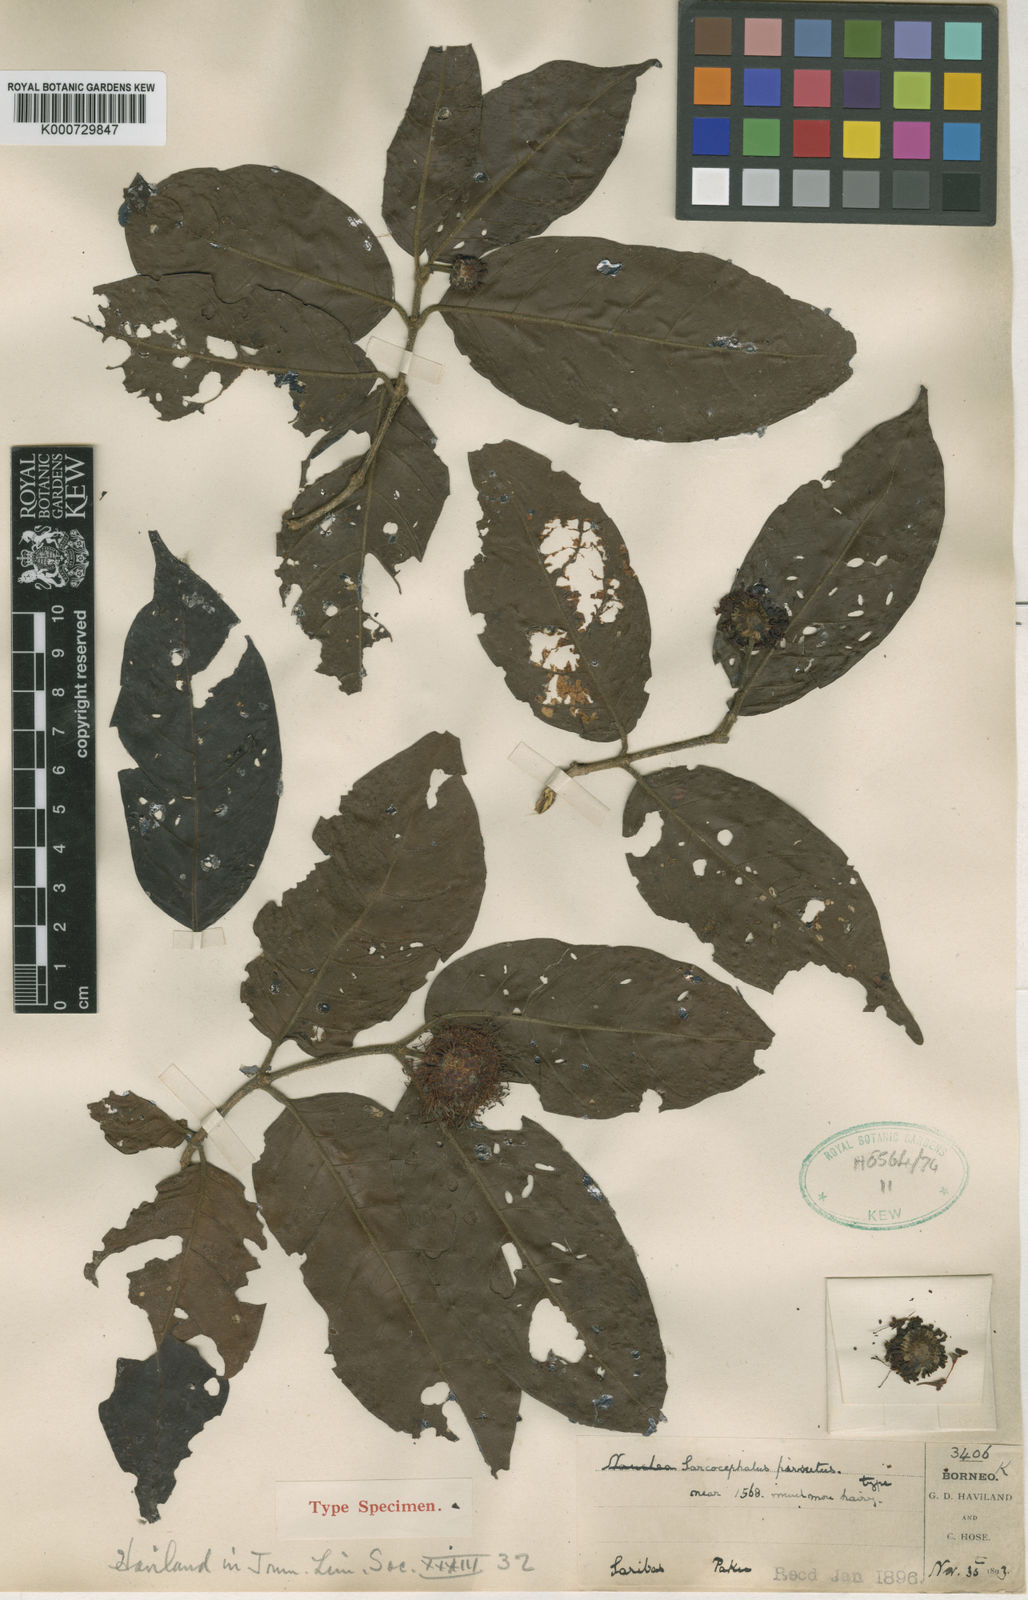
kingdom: Plantae
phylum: Tracheophyta
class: Magnoliopsida
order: Gentianales
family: Rubiaceae
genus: Nauclea
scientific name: Nauclea officinalis
